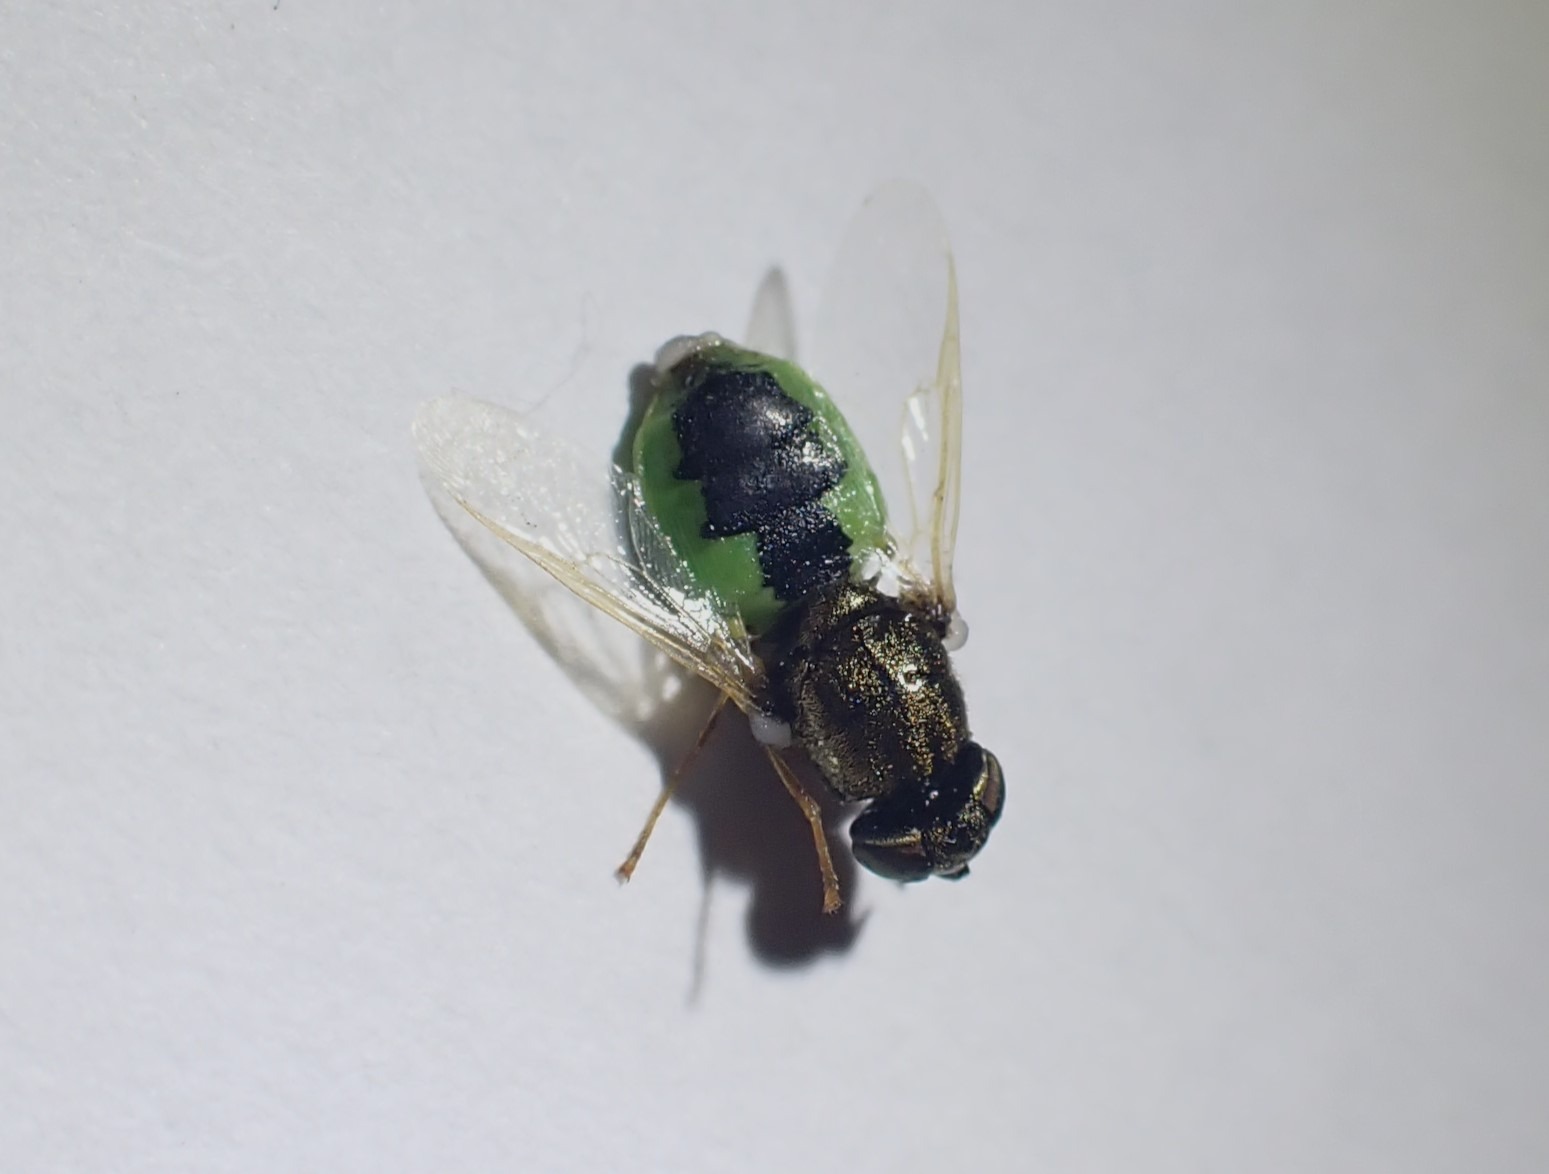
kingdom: Animalia
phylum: Arthropoda
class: Insecta
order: Diptera
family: Stratiomyidae
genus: Oplodontha
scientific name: Oplodontha viridula
